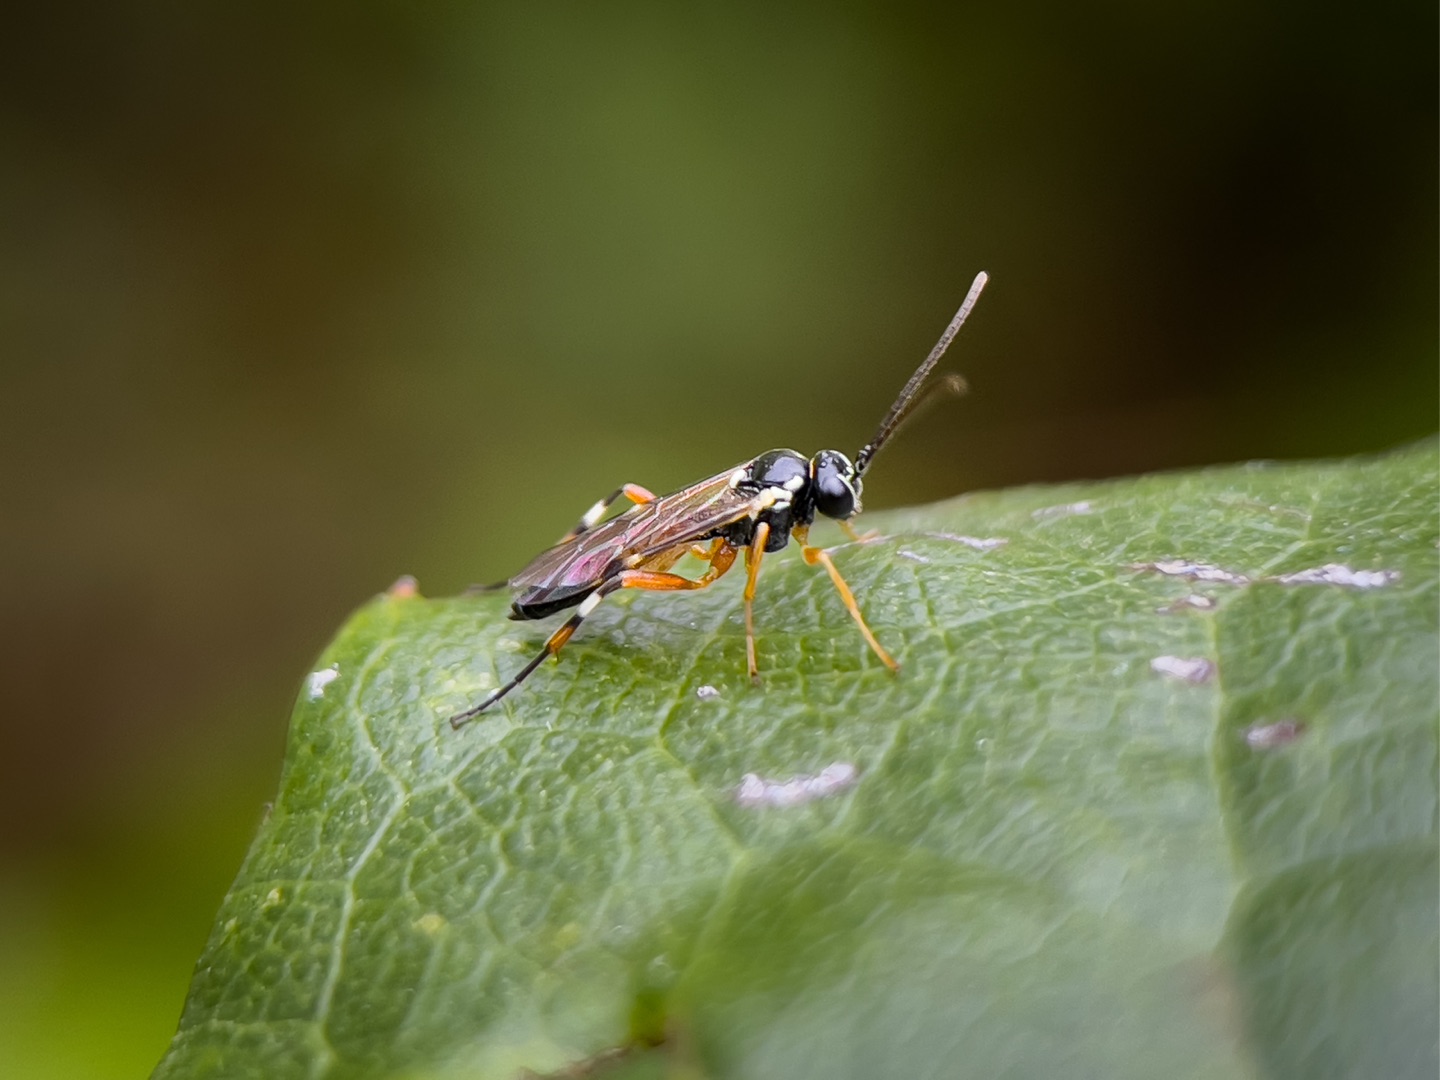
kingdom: Animalia
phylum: Arthropoda
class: Insecta
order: Hymenoptera
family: Ichneumonidae
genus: Diplazon
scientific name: Diplazon laetatorius
